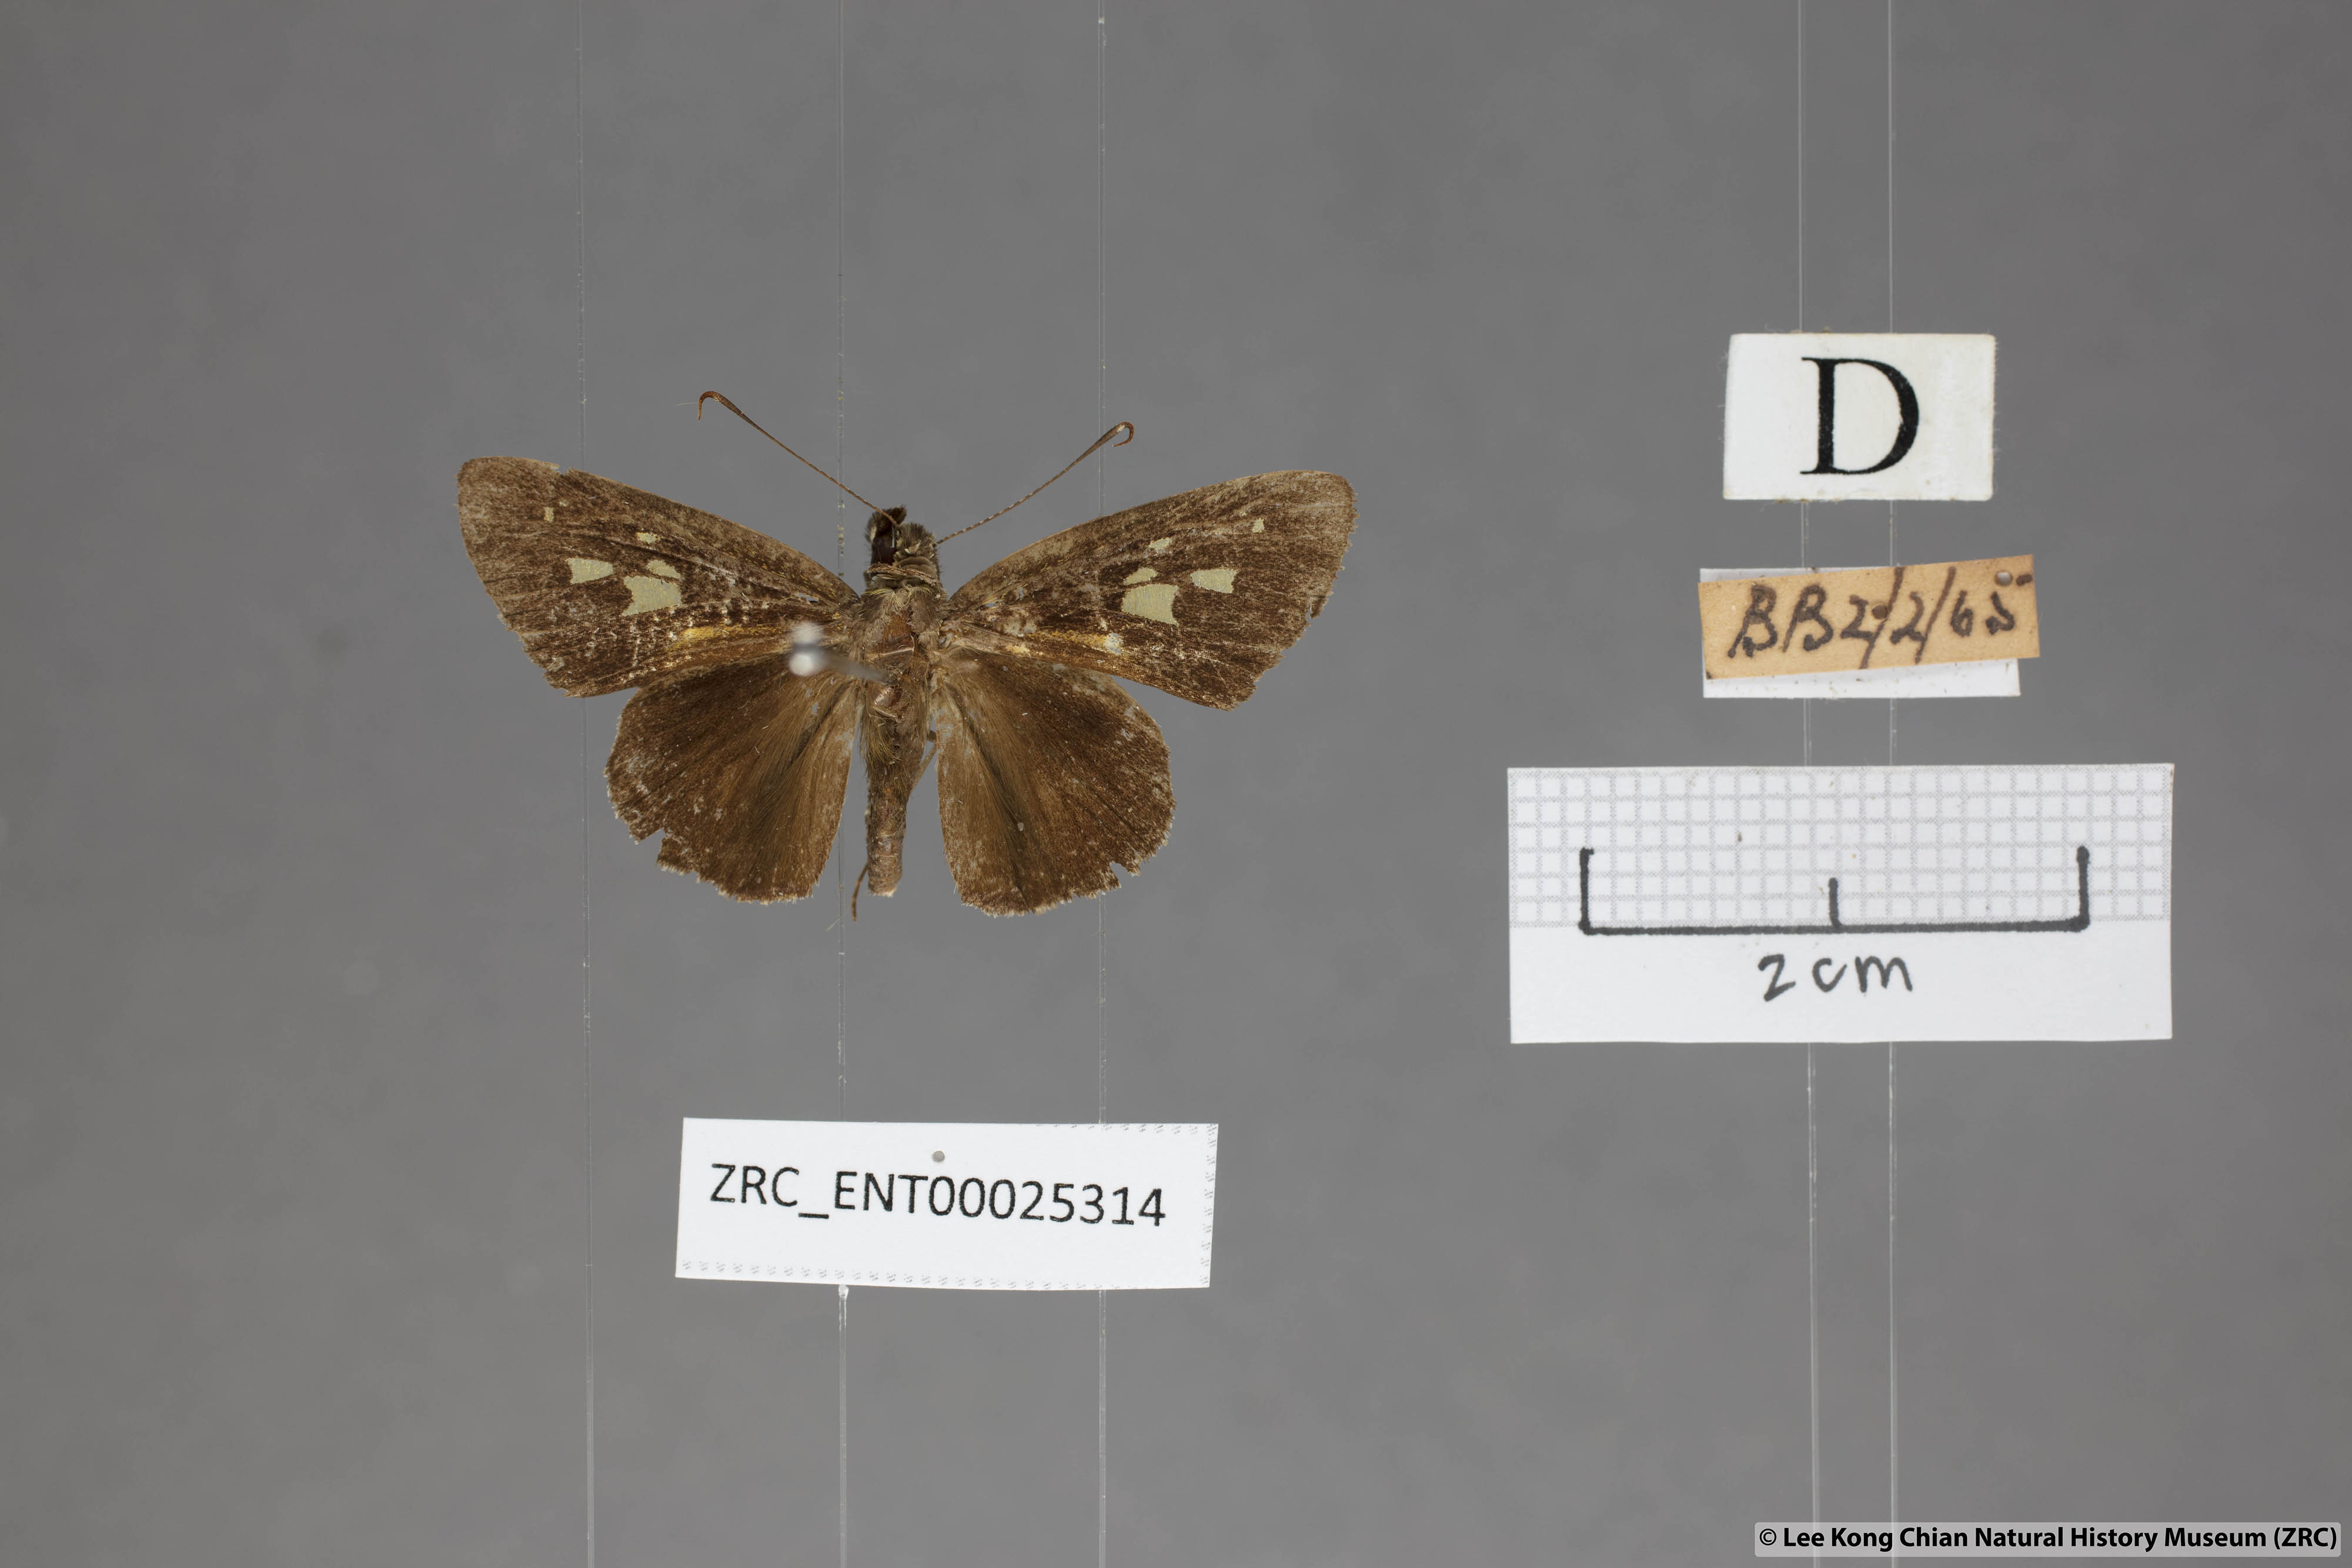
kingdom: Animalia
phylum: Arthropoda
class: Insecta
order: Lepidoptera
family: Hesperiidae
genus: Salanoemia
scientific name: Salanoemia sala
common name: Maculate lancer
